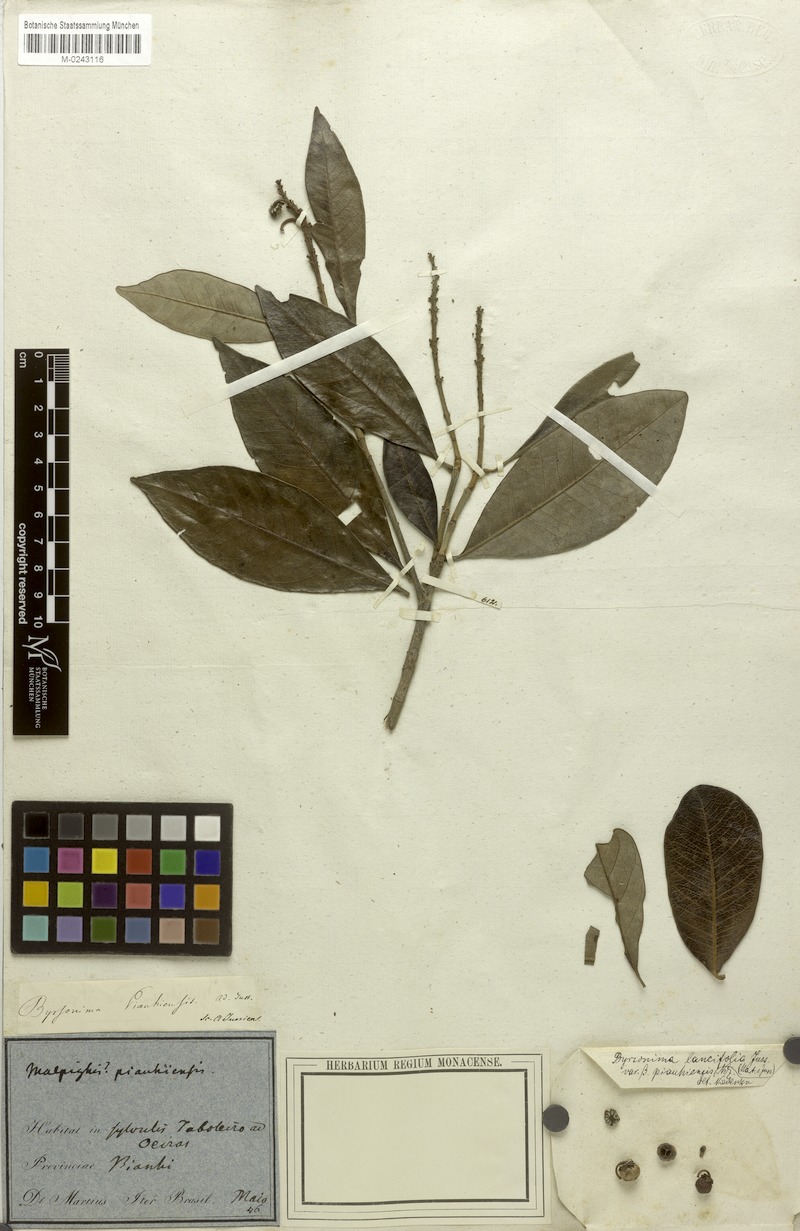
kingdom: Plantae
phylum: Tracheophyta
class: Magnoliopsida
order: Malpighiales
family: Malpighiaceae
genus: Byrsonima
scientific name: Byrsonima lancifolia
